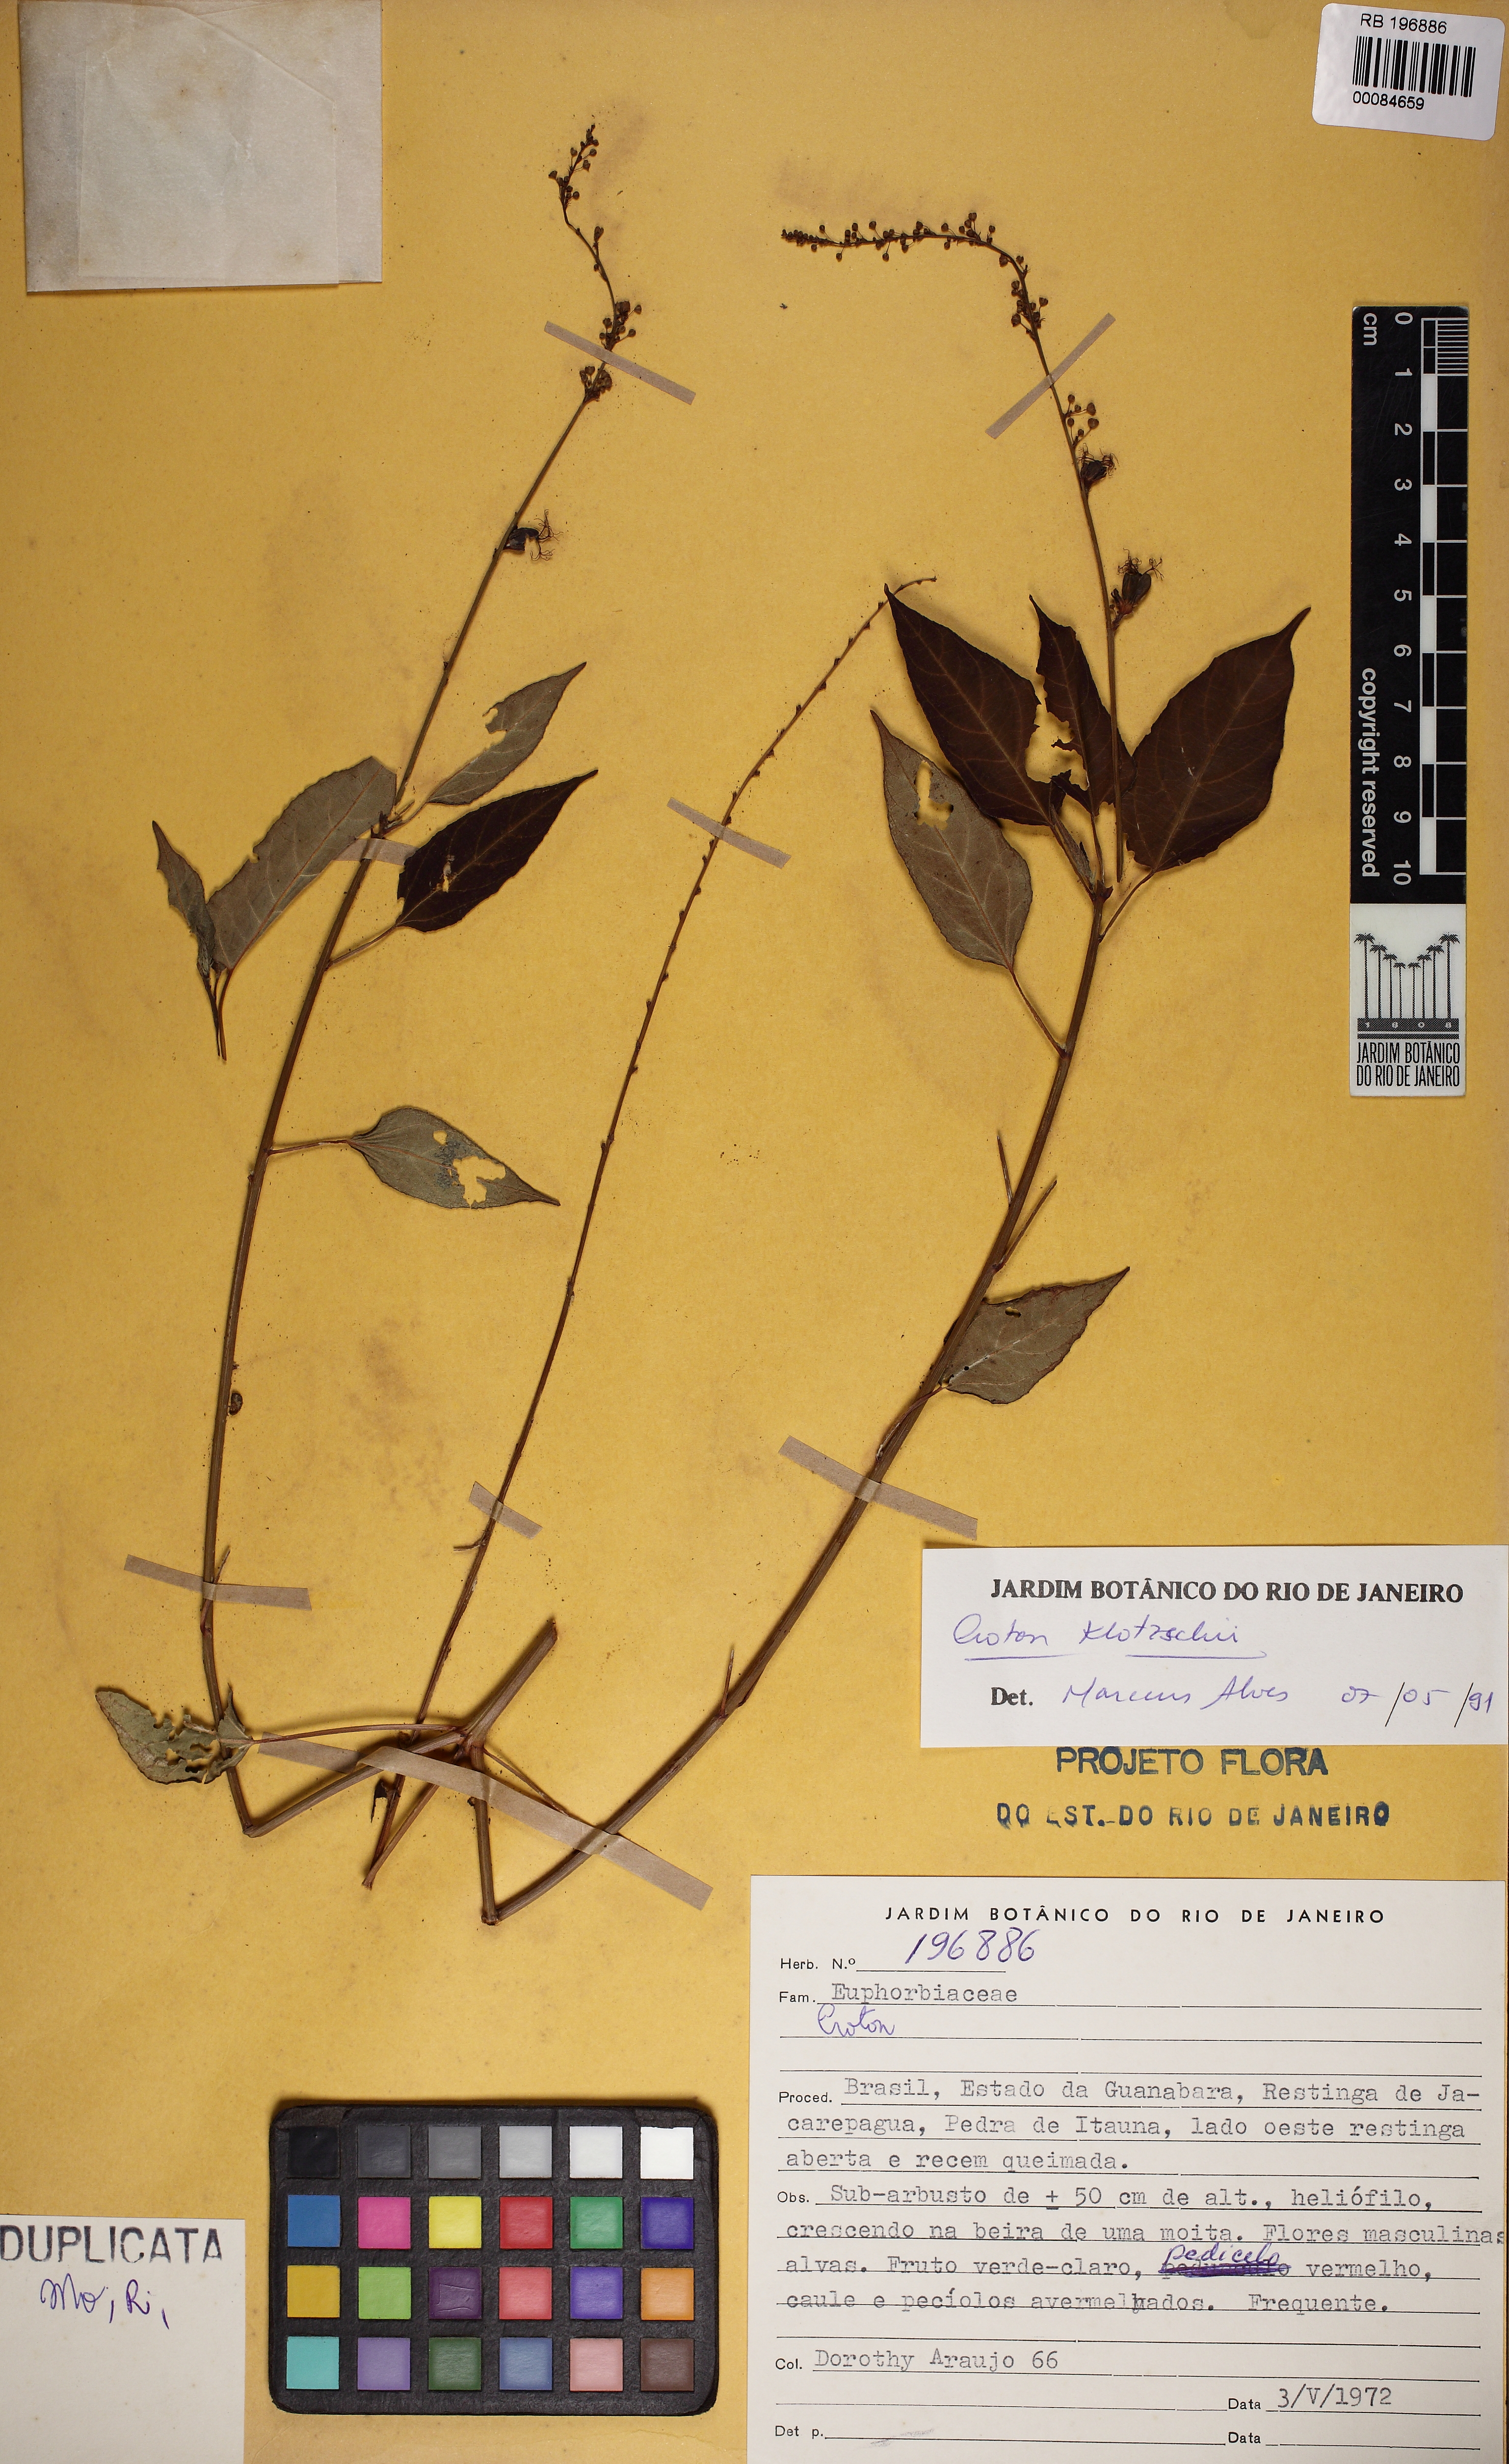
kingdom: Plantae
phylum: Tracheophyta
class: Magnoliopsida
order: Malpighiales
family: Euphorbiaceae
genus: Astraea
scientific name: Astraea macroura
